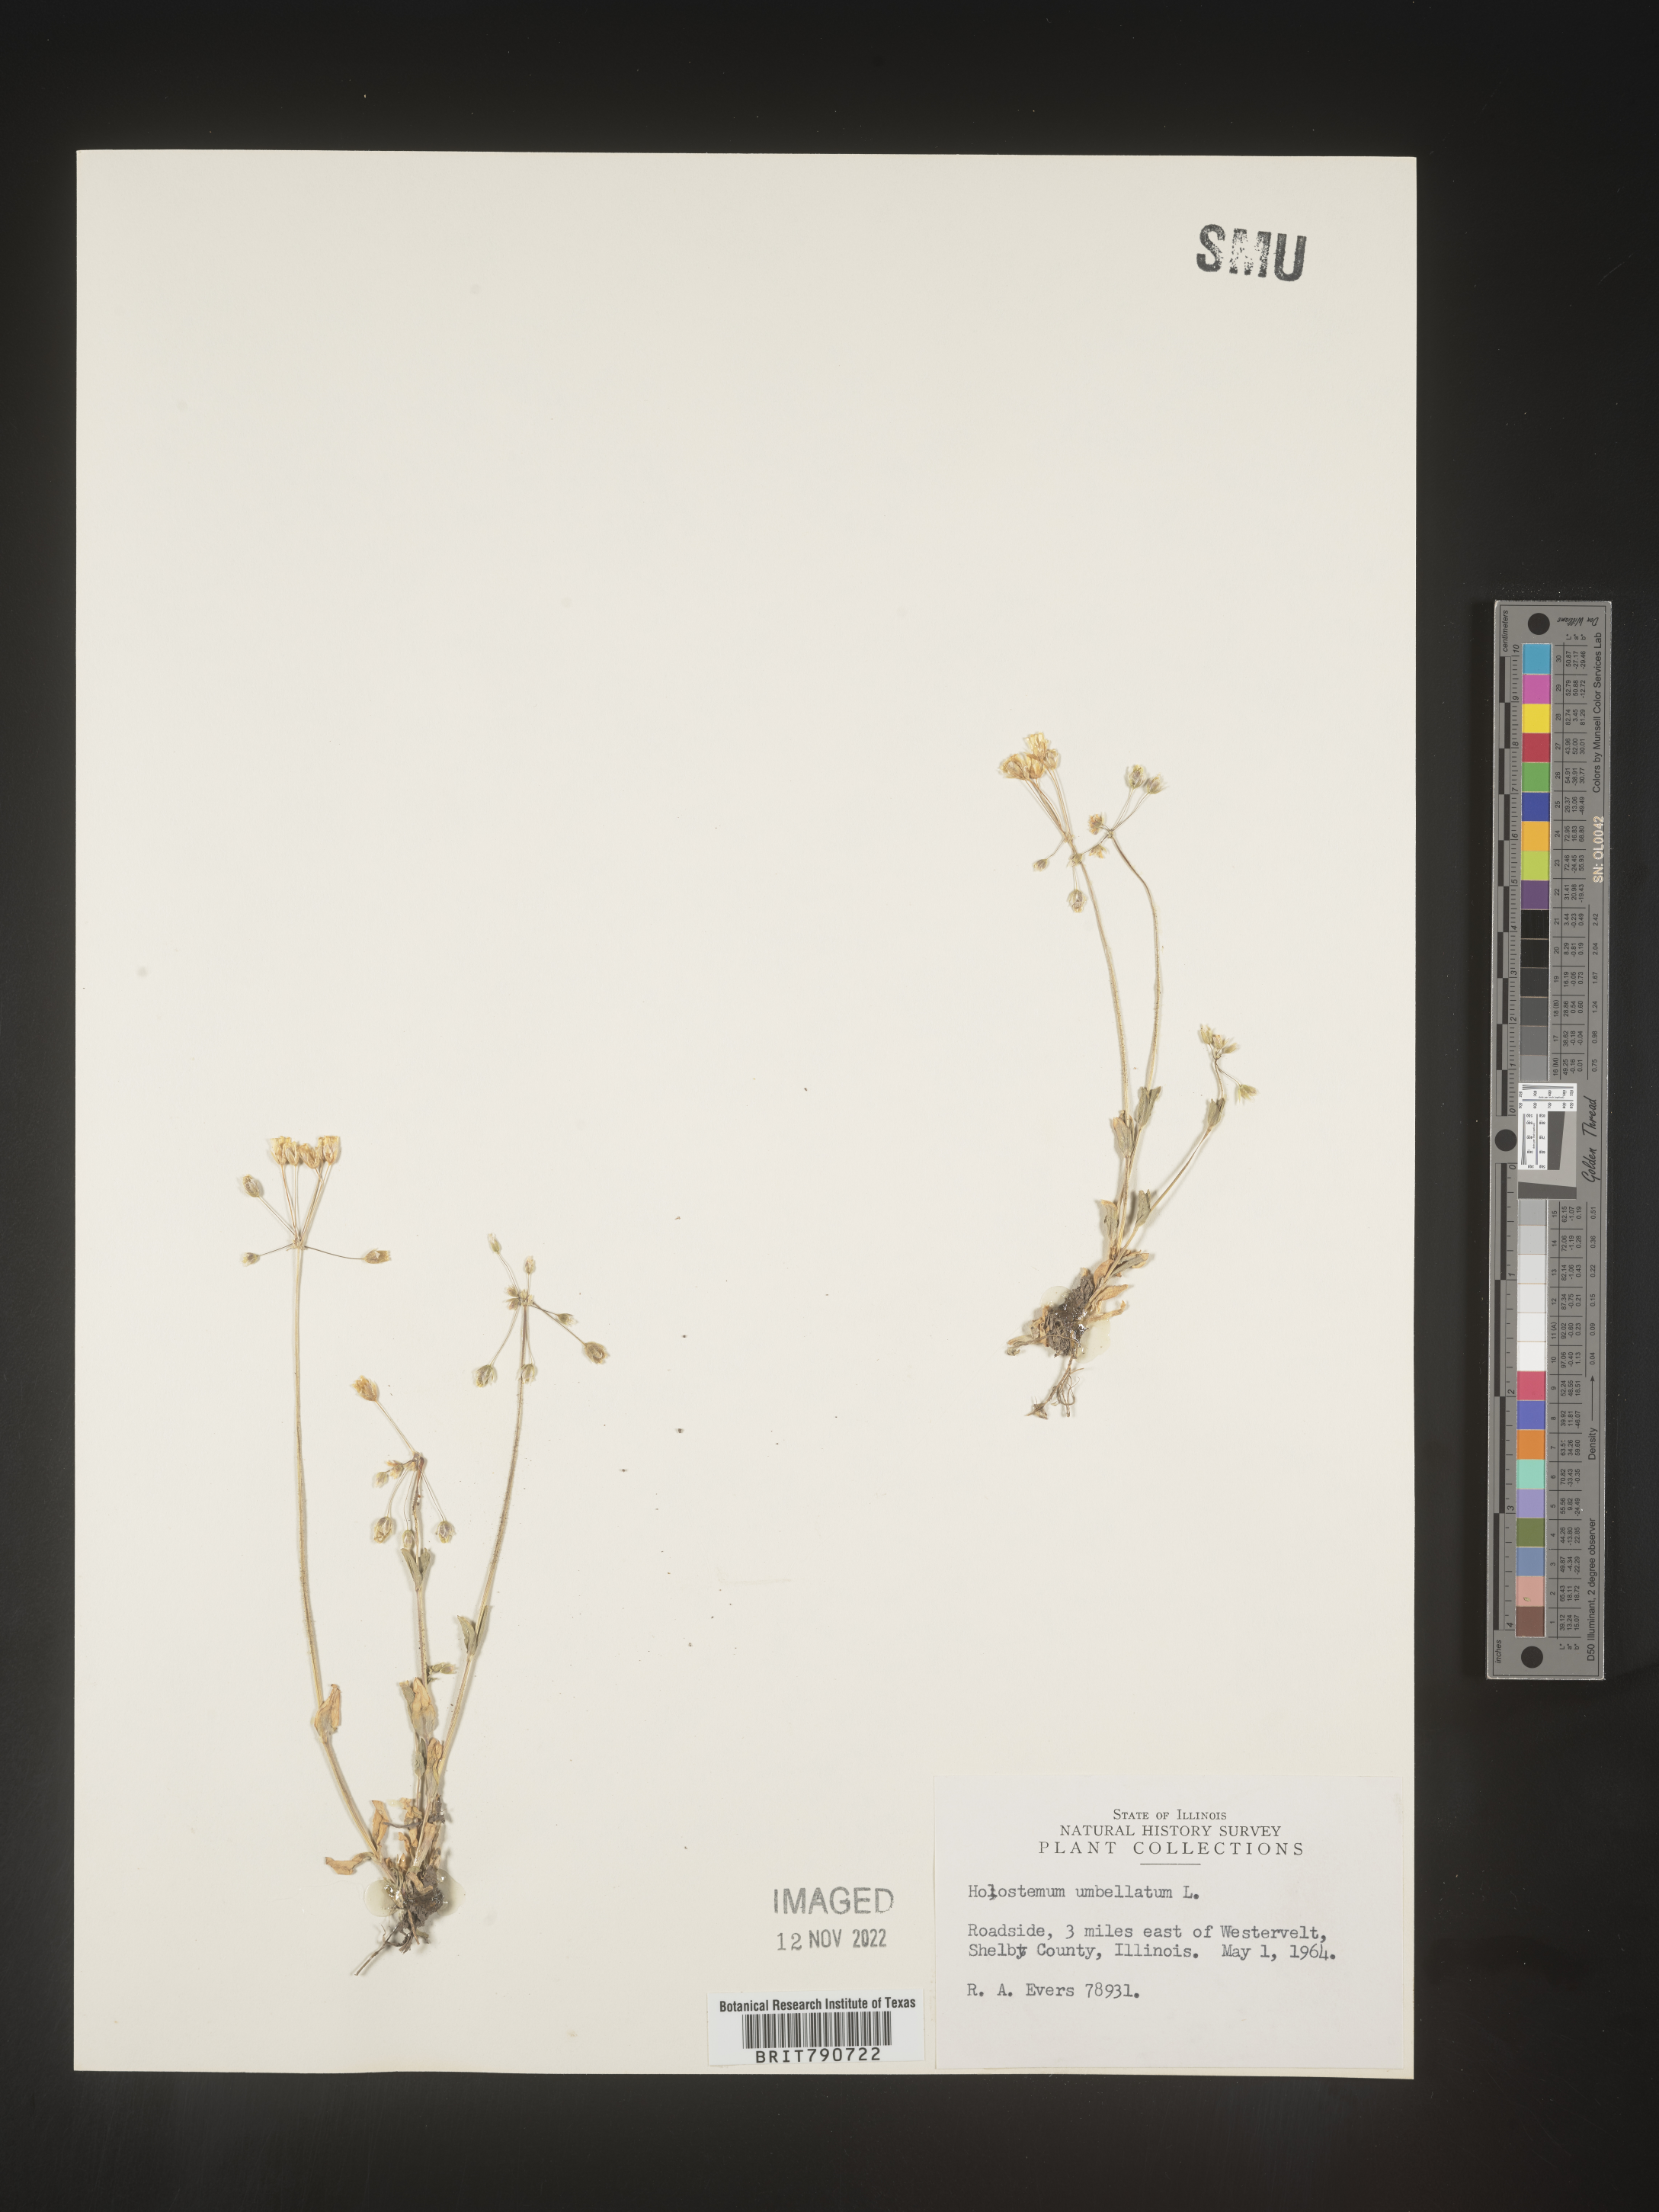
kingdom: Plantae
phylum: Tracheophyta
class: Magnoliopsida
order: Caryophyllales
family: Caryophyllaceae
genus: Holosteum
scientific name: Holosteum
